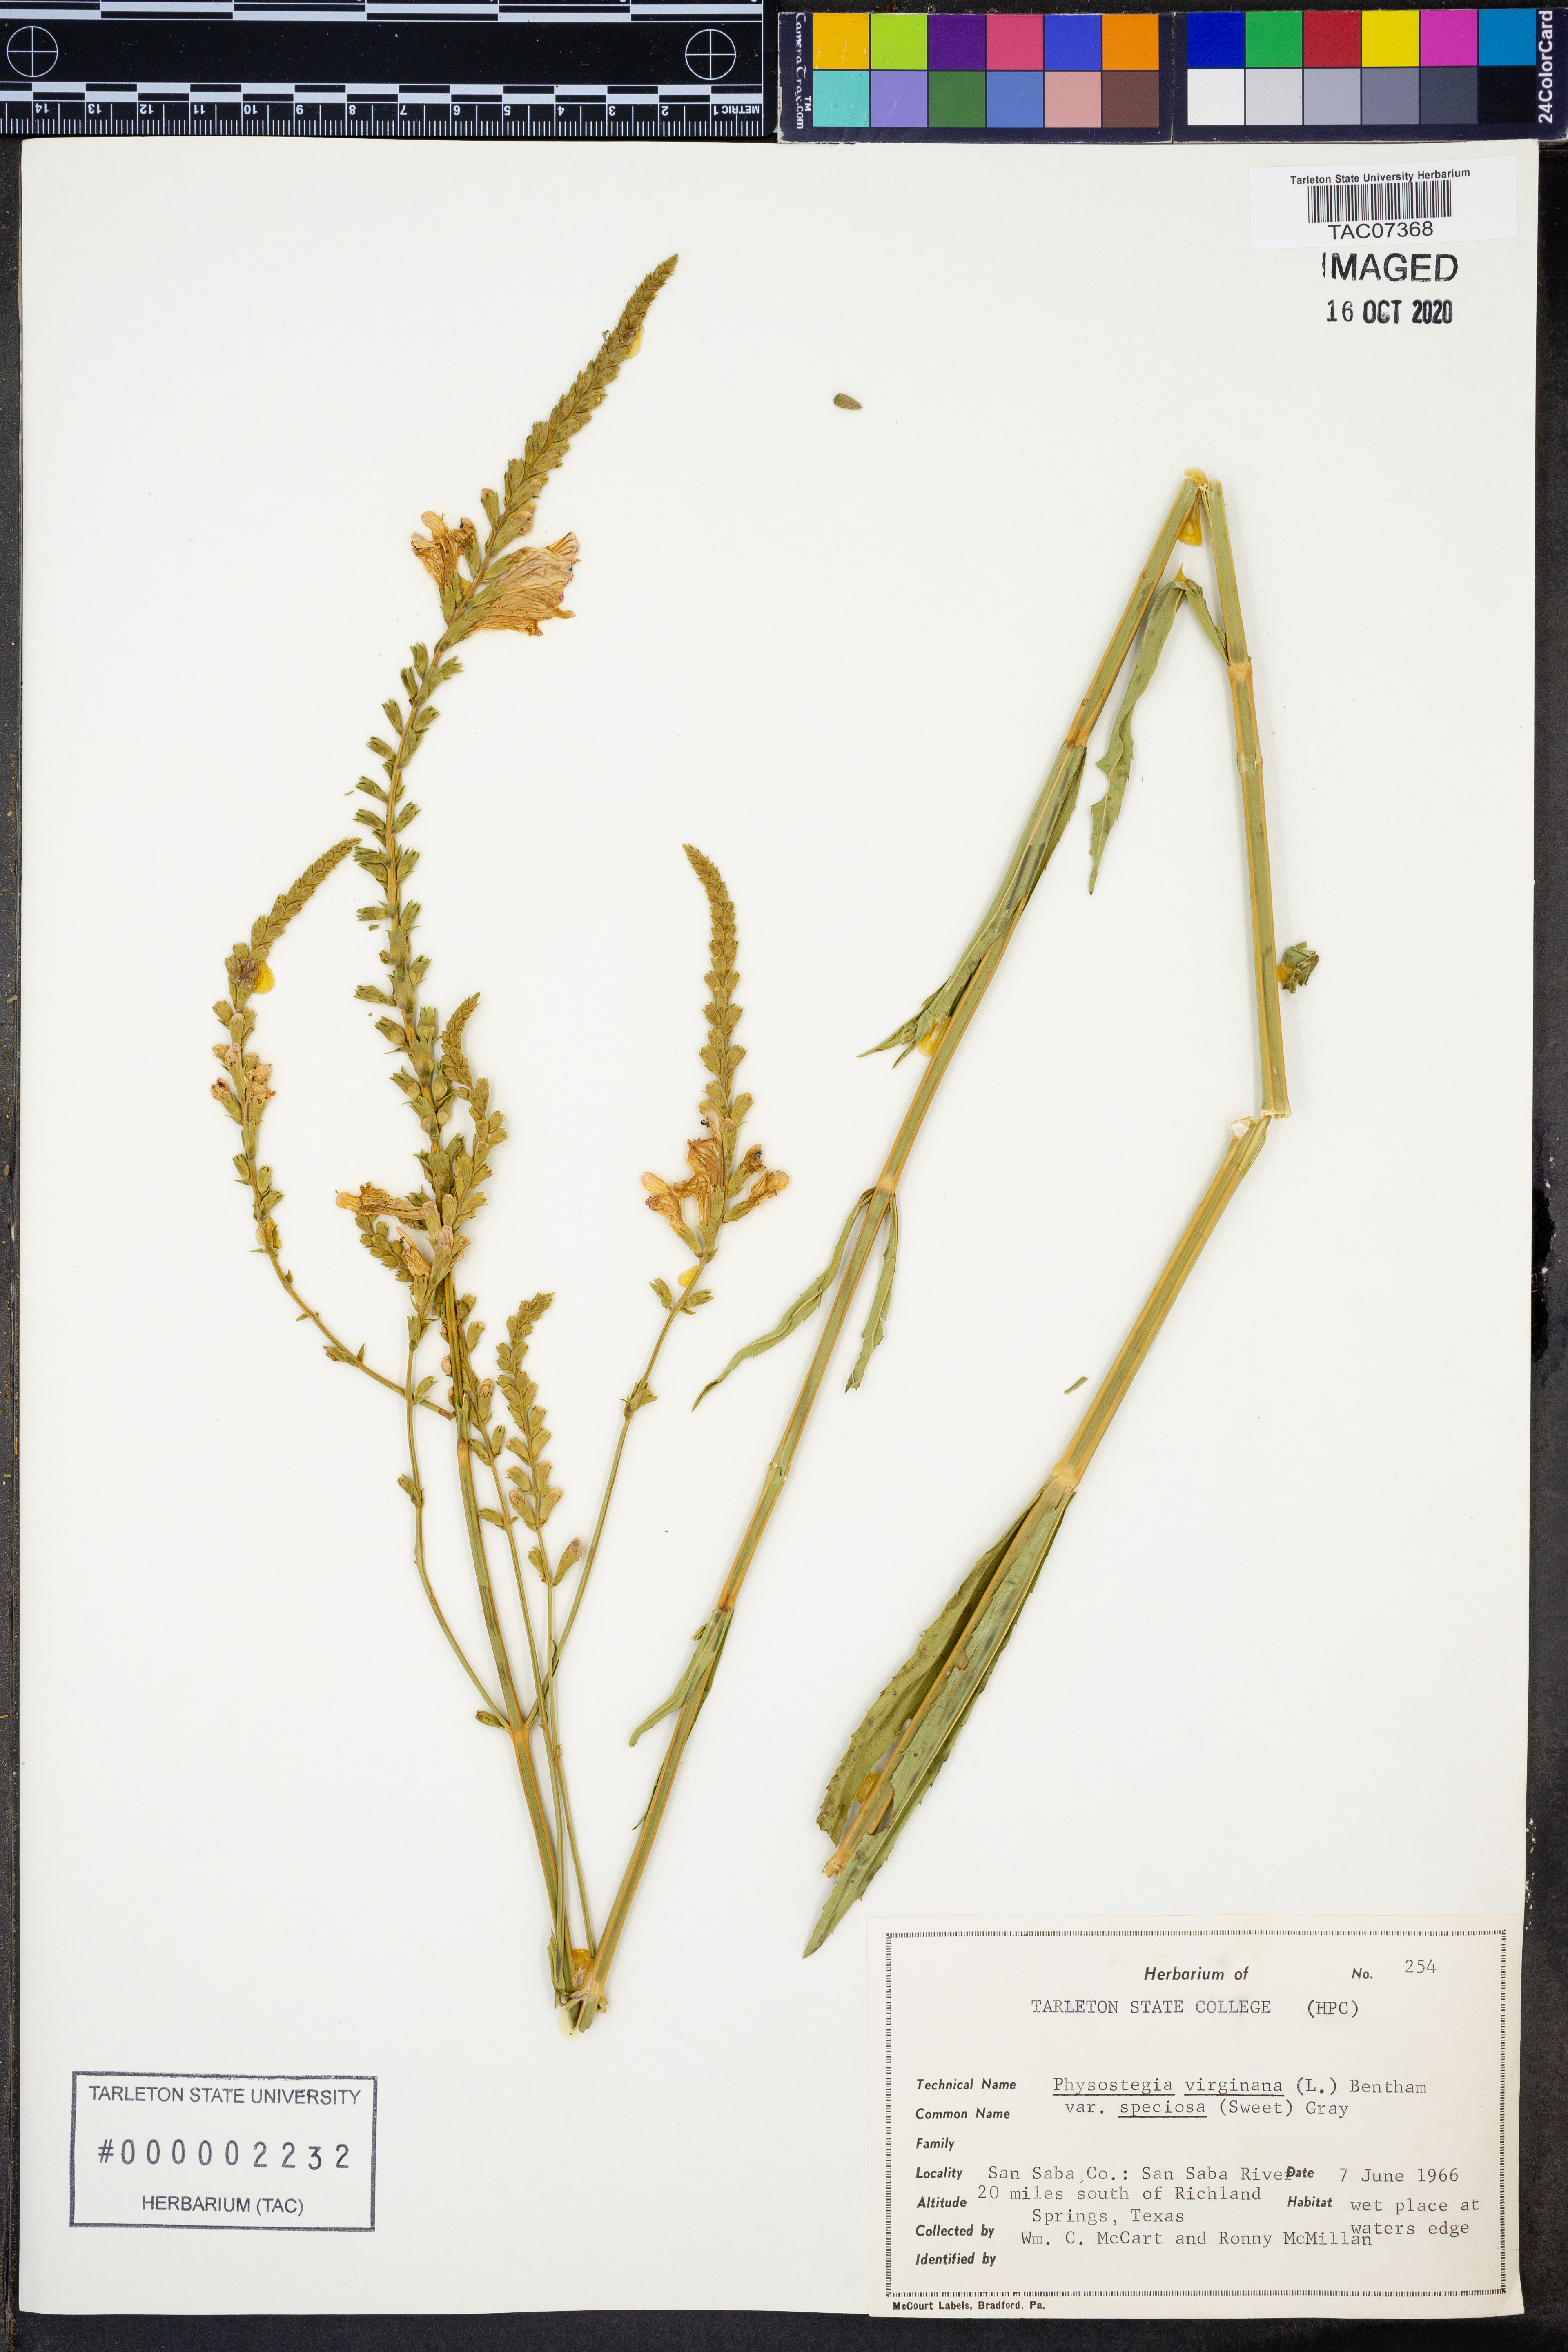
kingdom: Plantae
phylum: Tracheophyta
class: Magnoliopsida
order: Lamiales
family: Lamiaceae
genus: Physostegia
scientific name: Physostegia virginiana
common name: Obedient-plant
